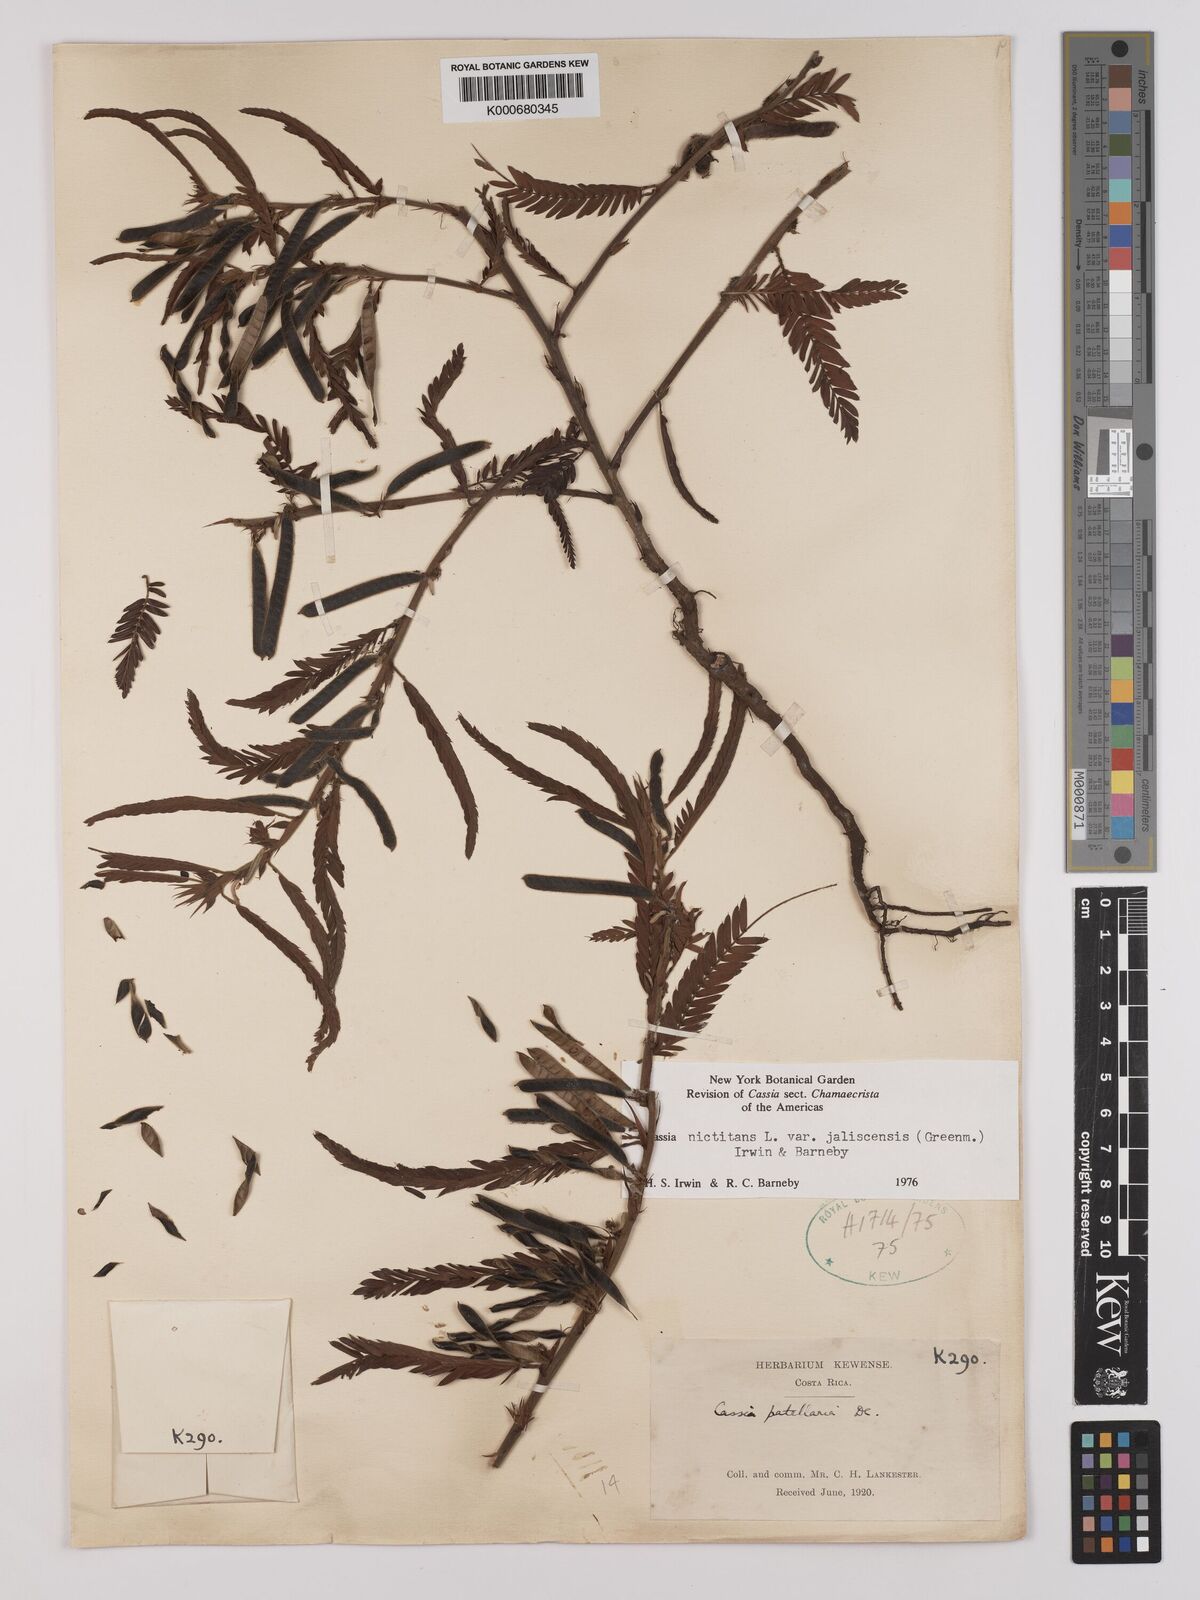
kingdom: Plantae
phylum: Tracheophyta
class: Magnoliopsida
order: Fabales
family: Fabaceae
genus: Chamaecrista
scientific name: Chamaecrista nictitans
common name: Sensitive cassia
